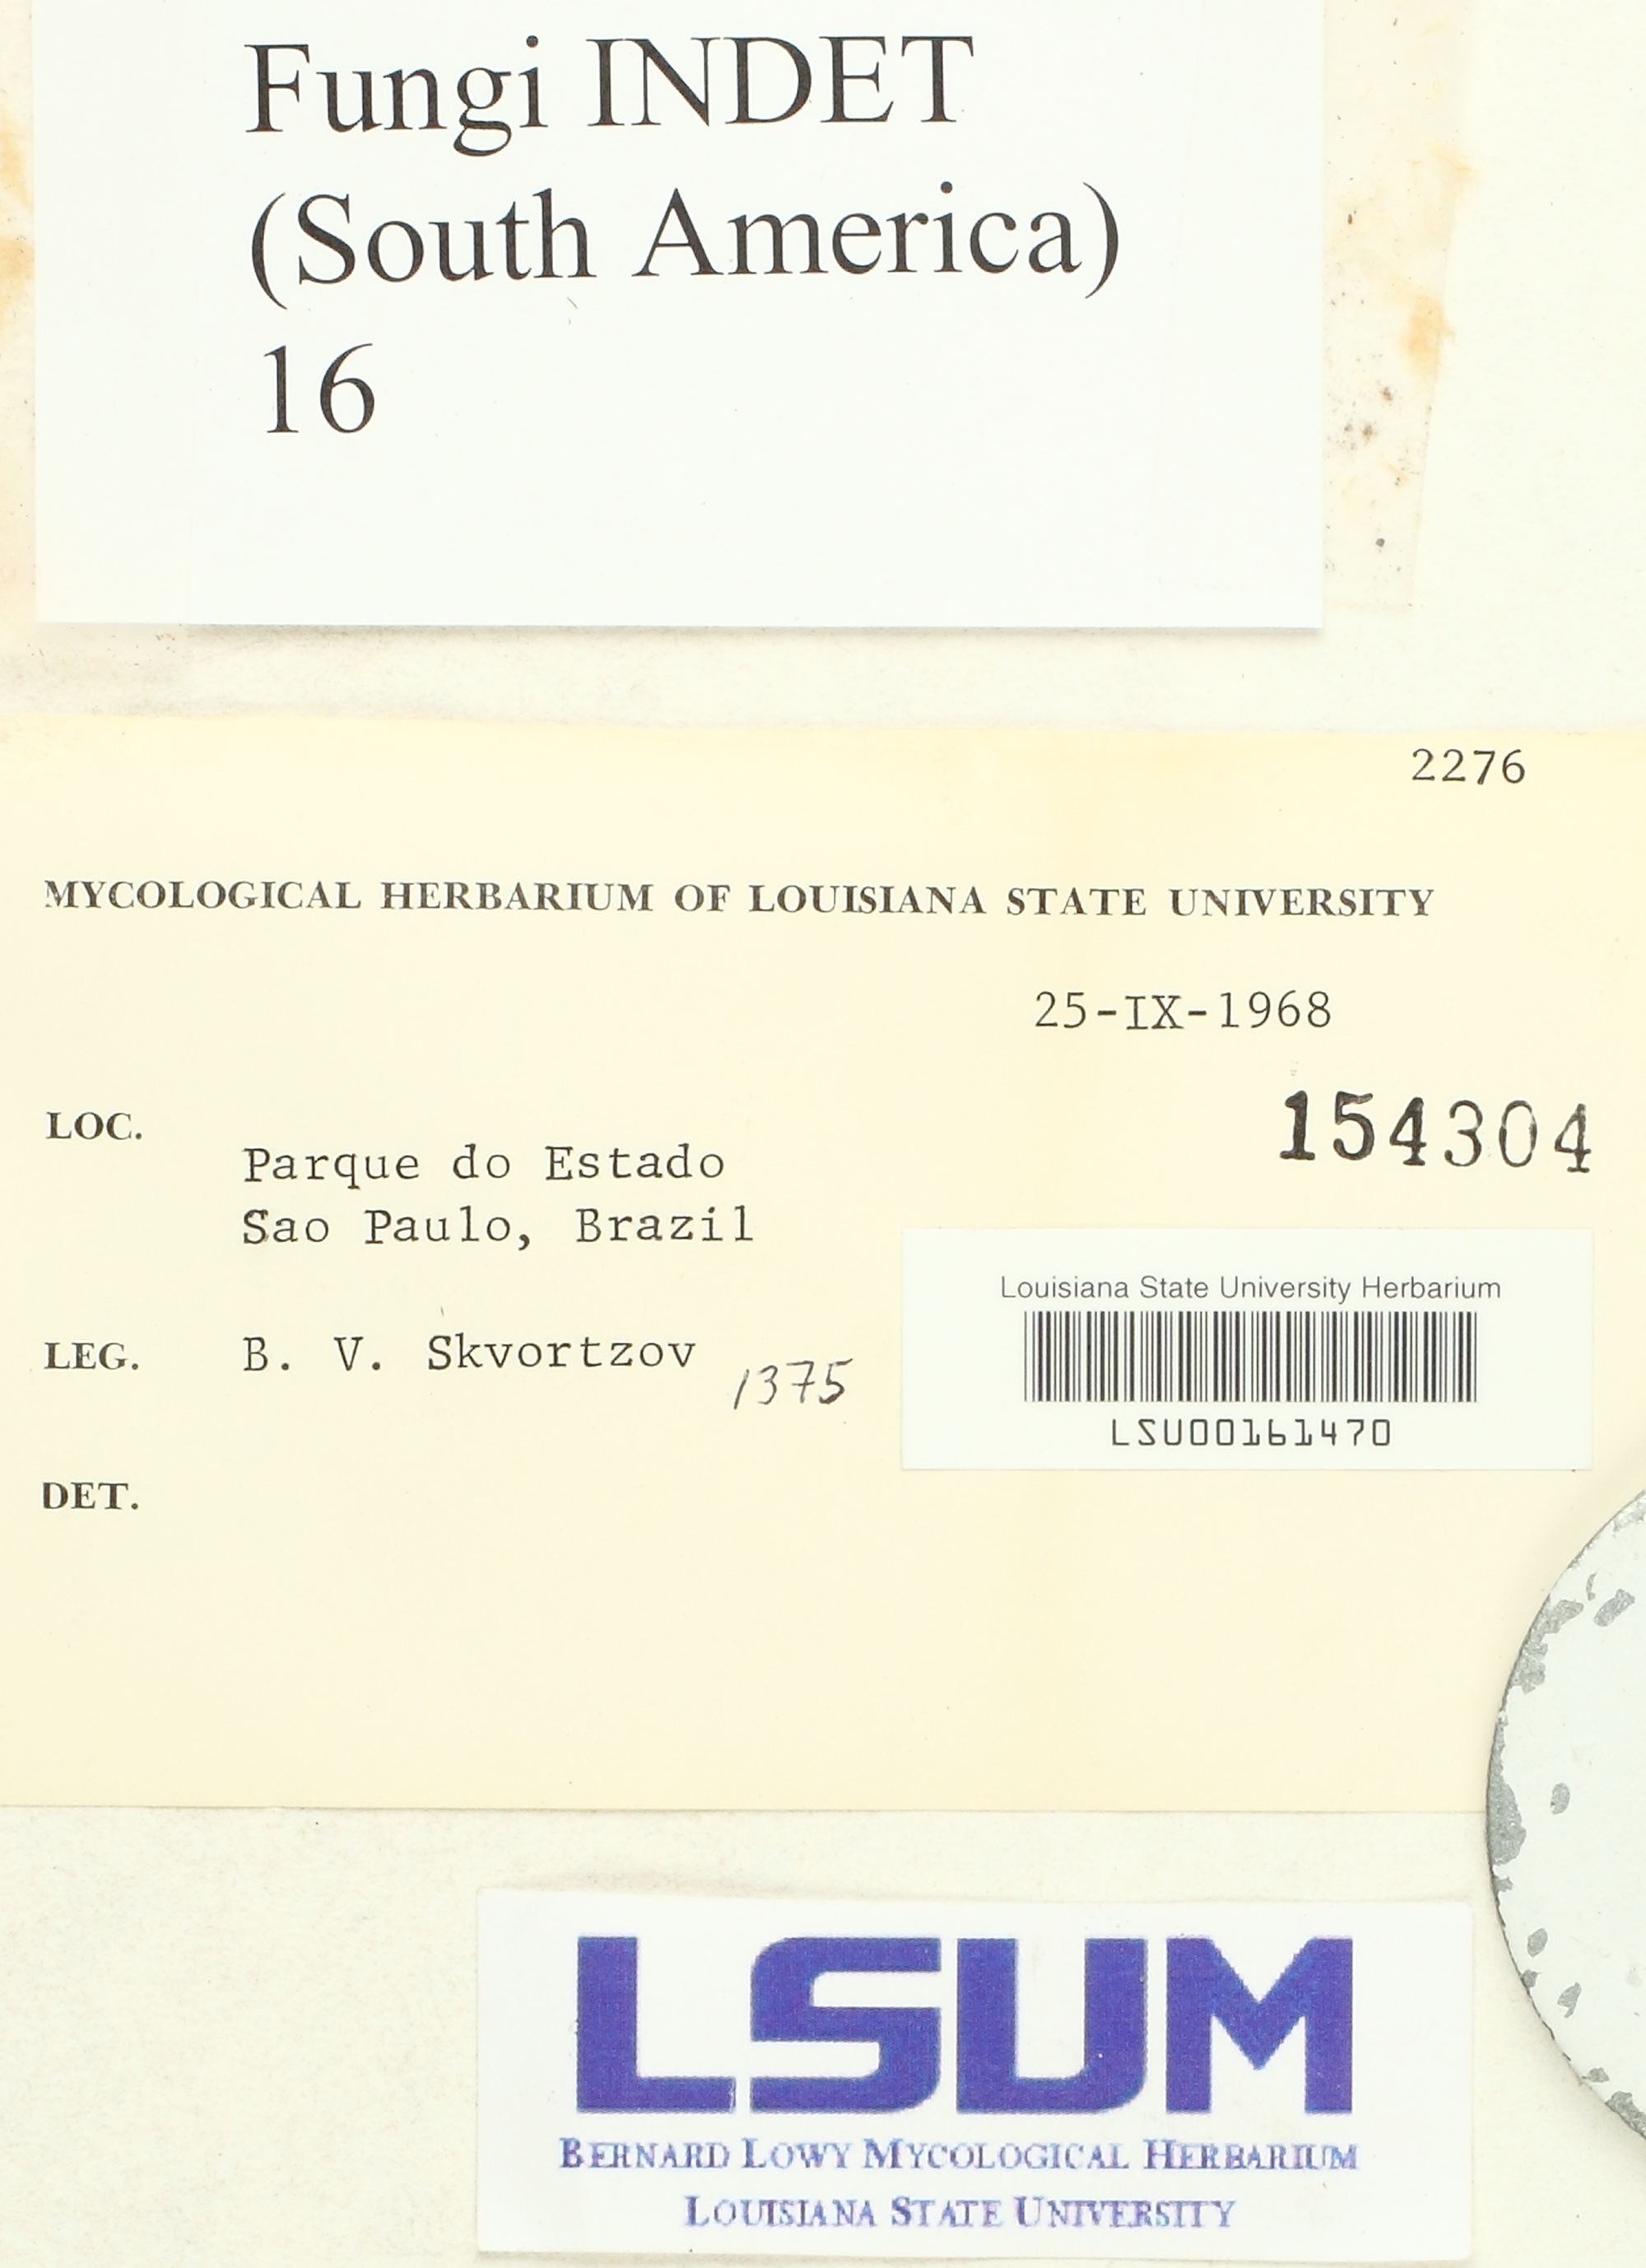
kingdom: Fungi
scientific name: Fungi
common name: Fungi
